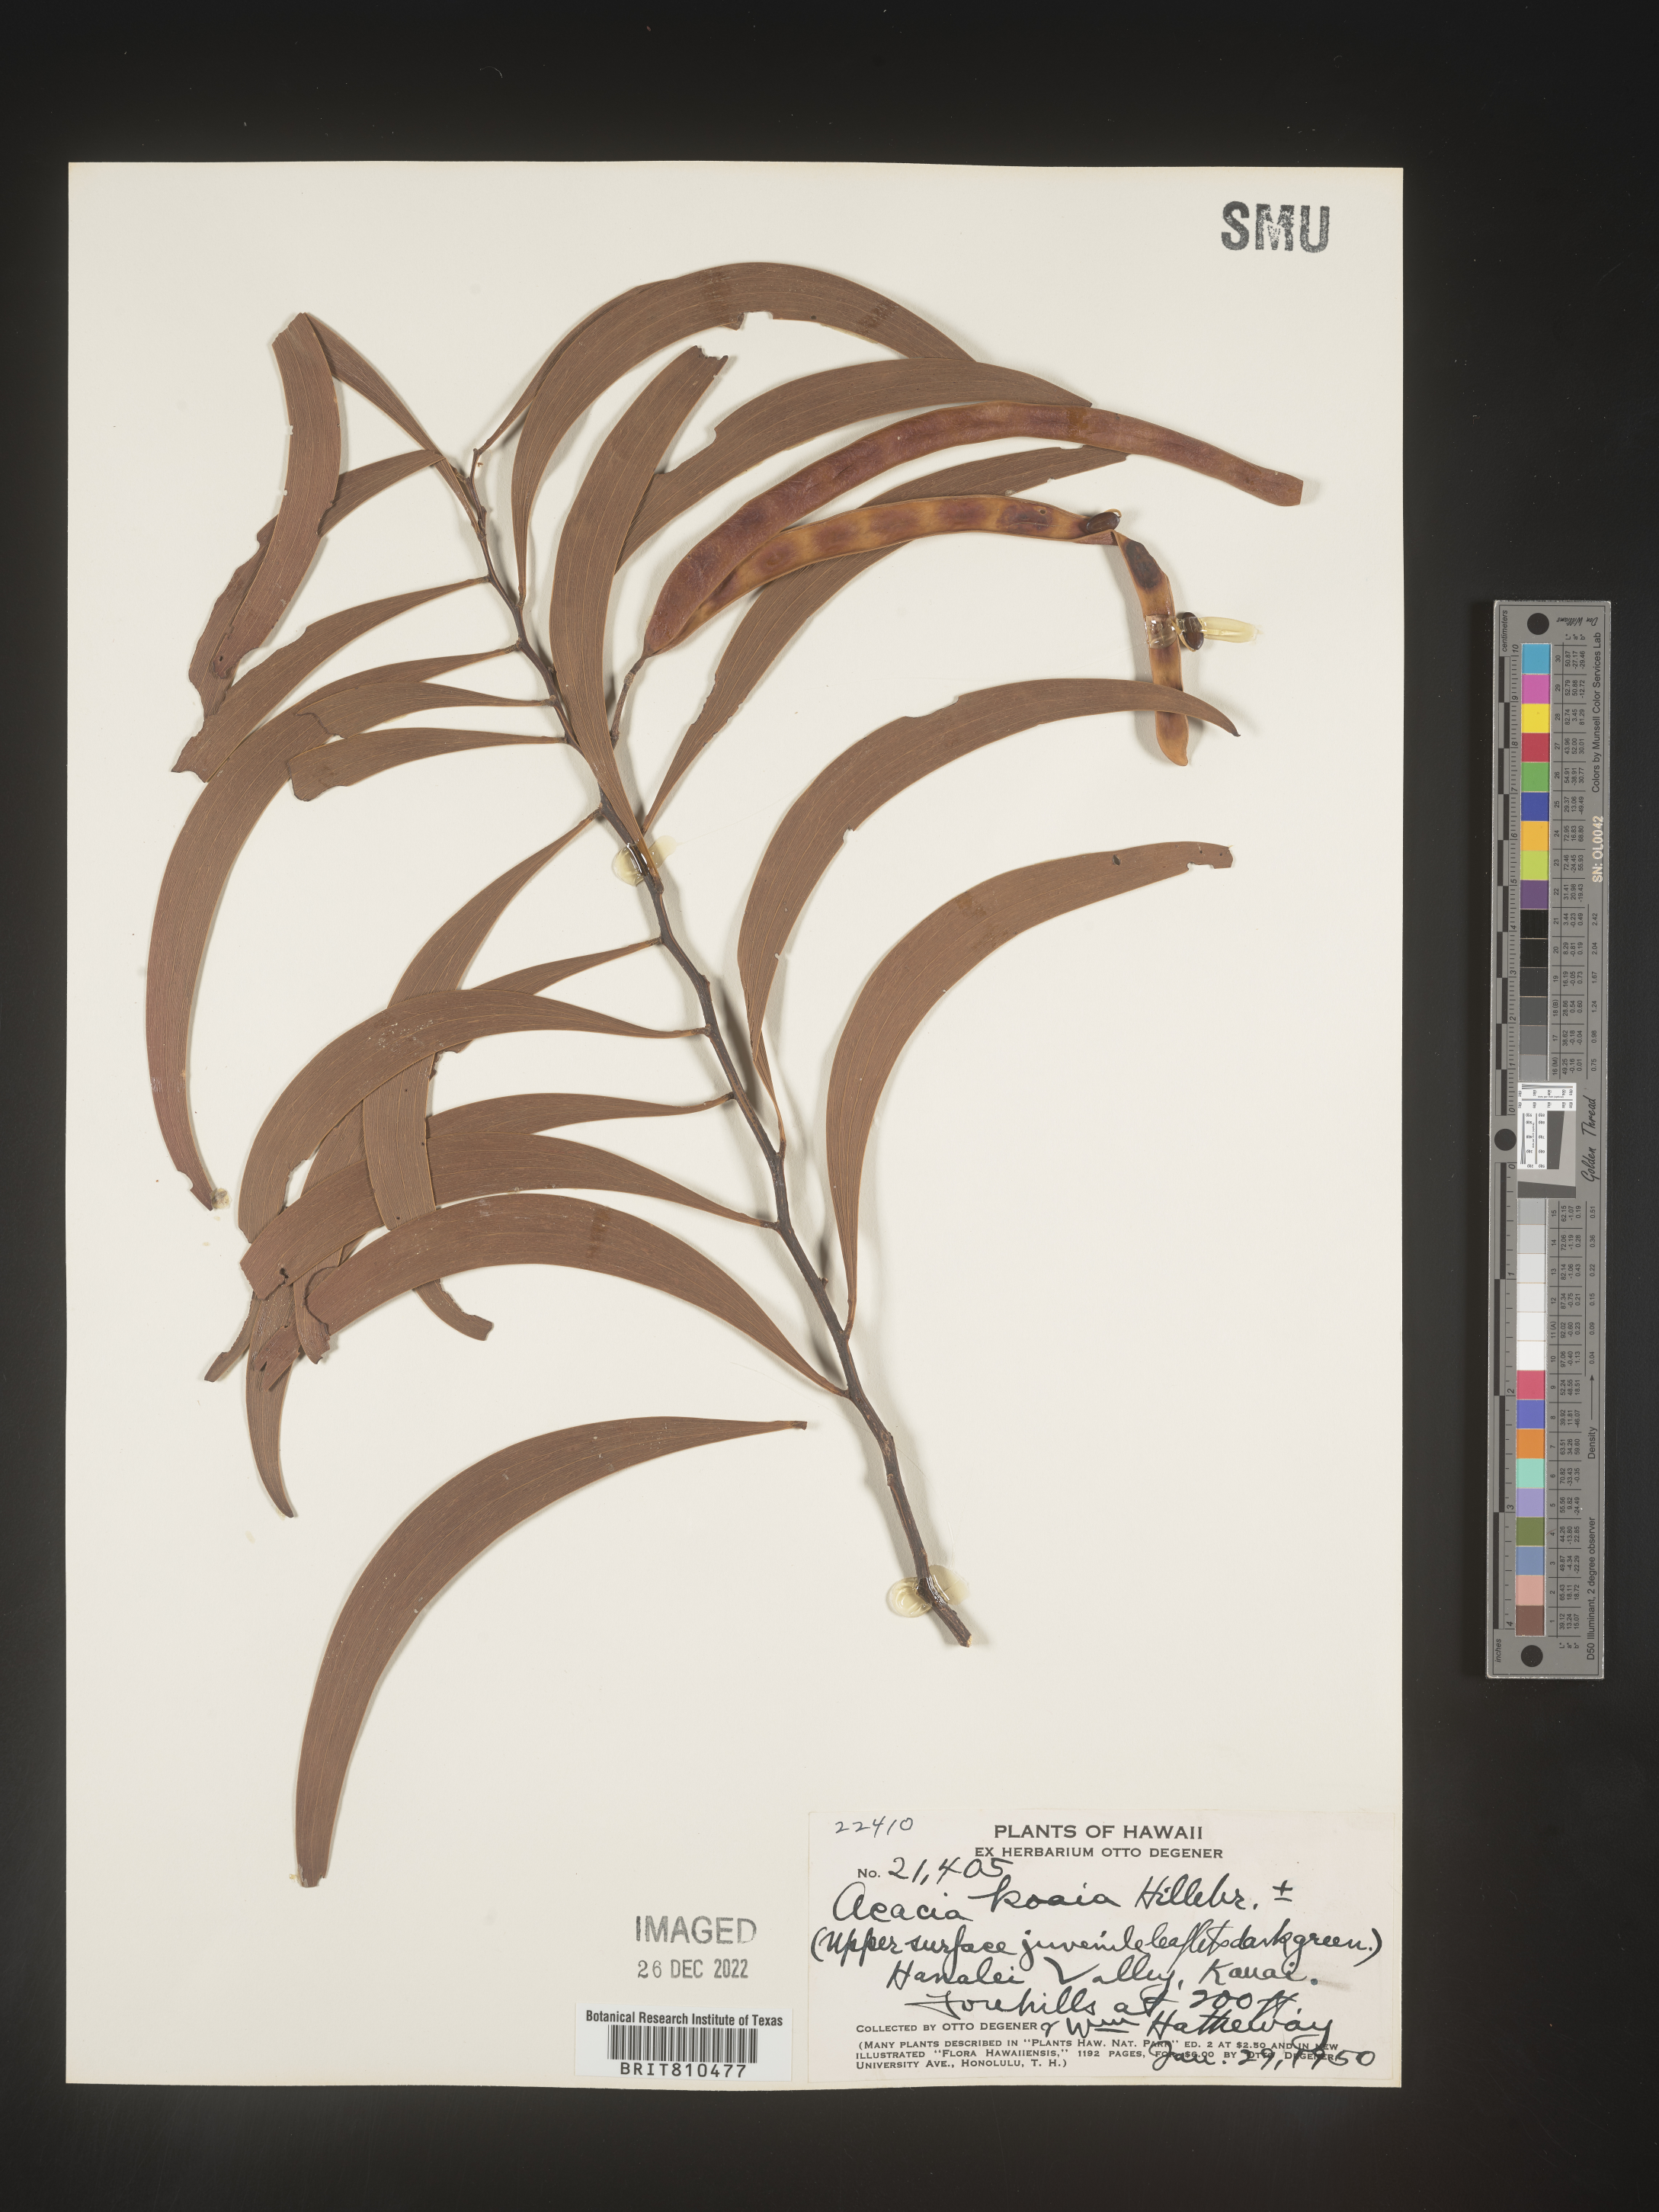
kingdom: Plantae
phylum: Tracheophyta
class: Magnoliopsida
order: Fabales
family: Fabaceae
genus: Acacia
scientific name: Acacia
